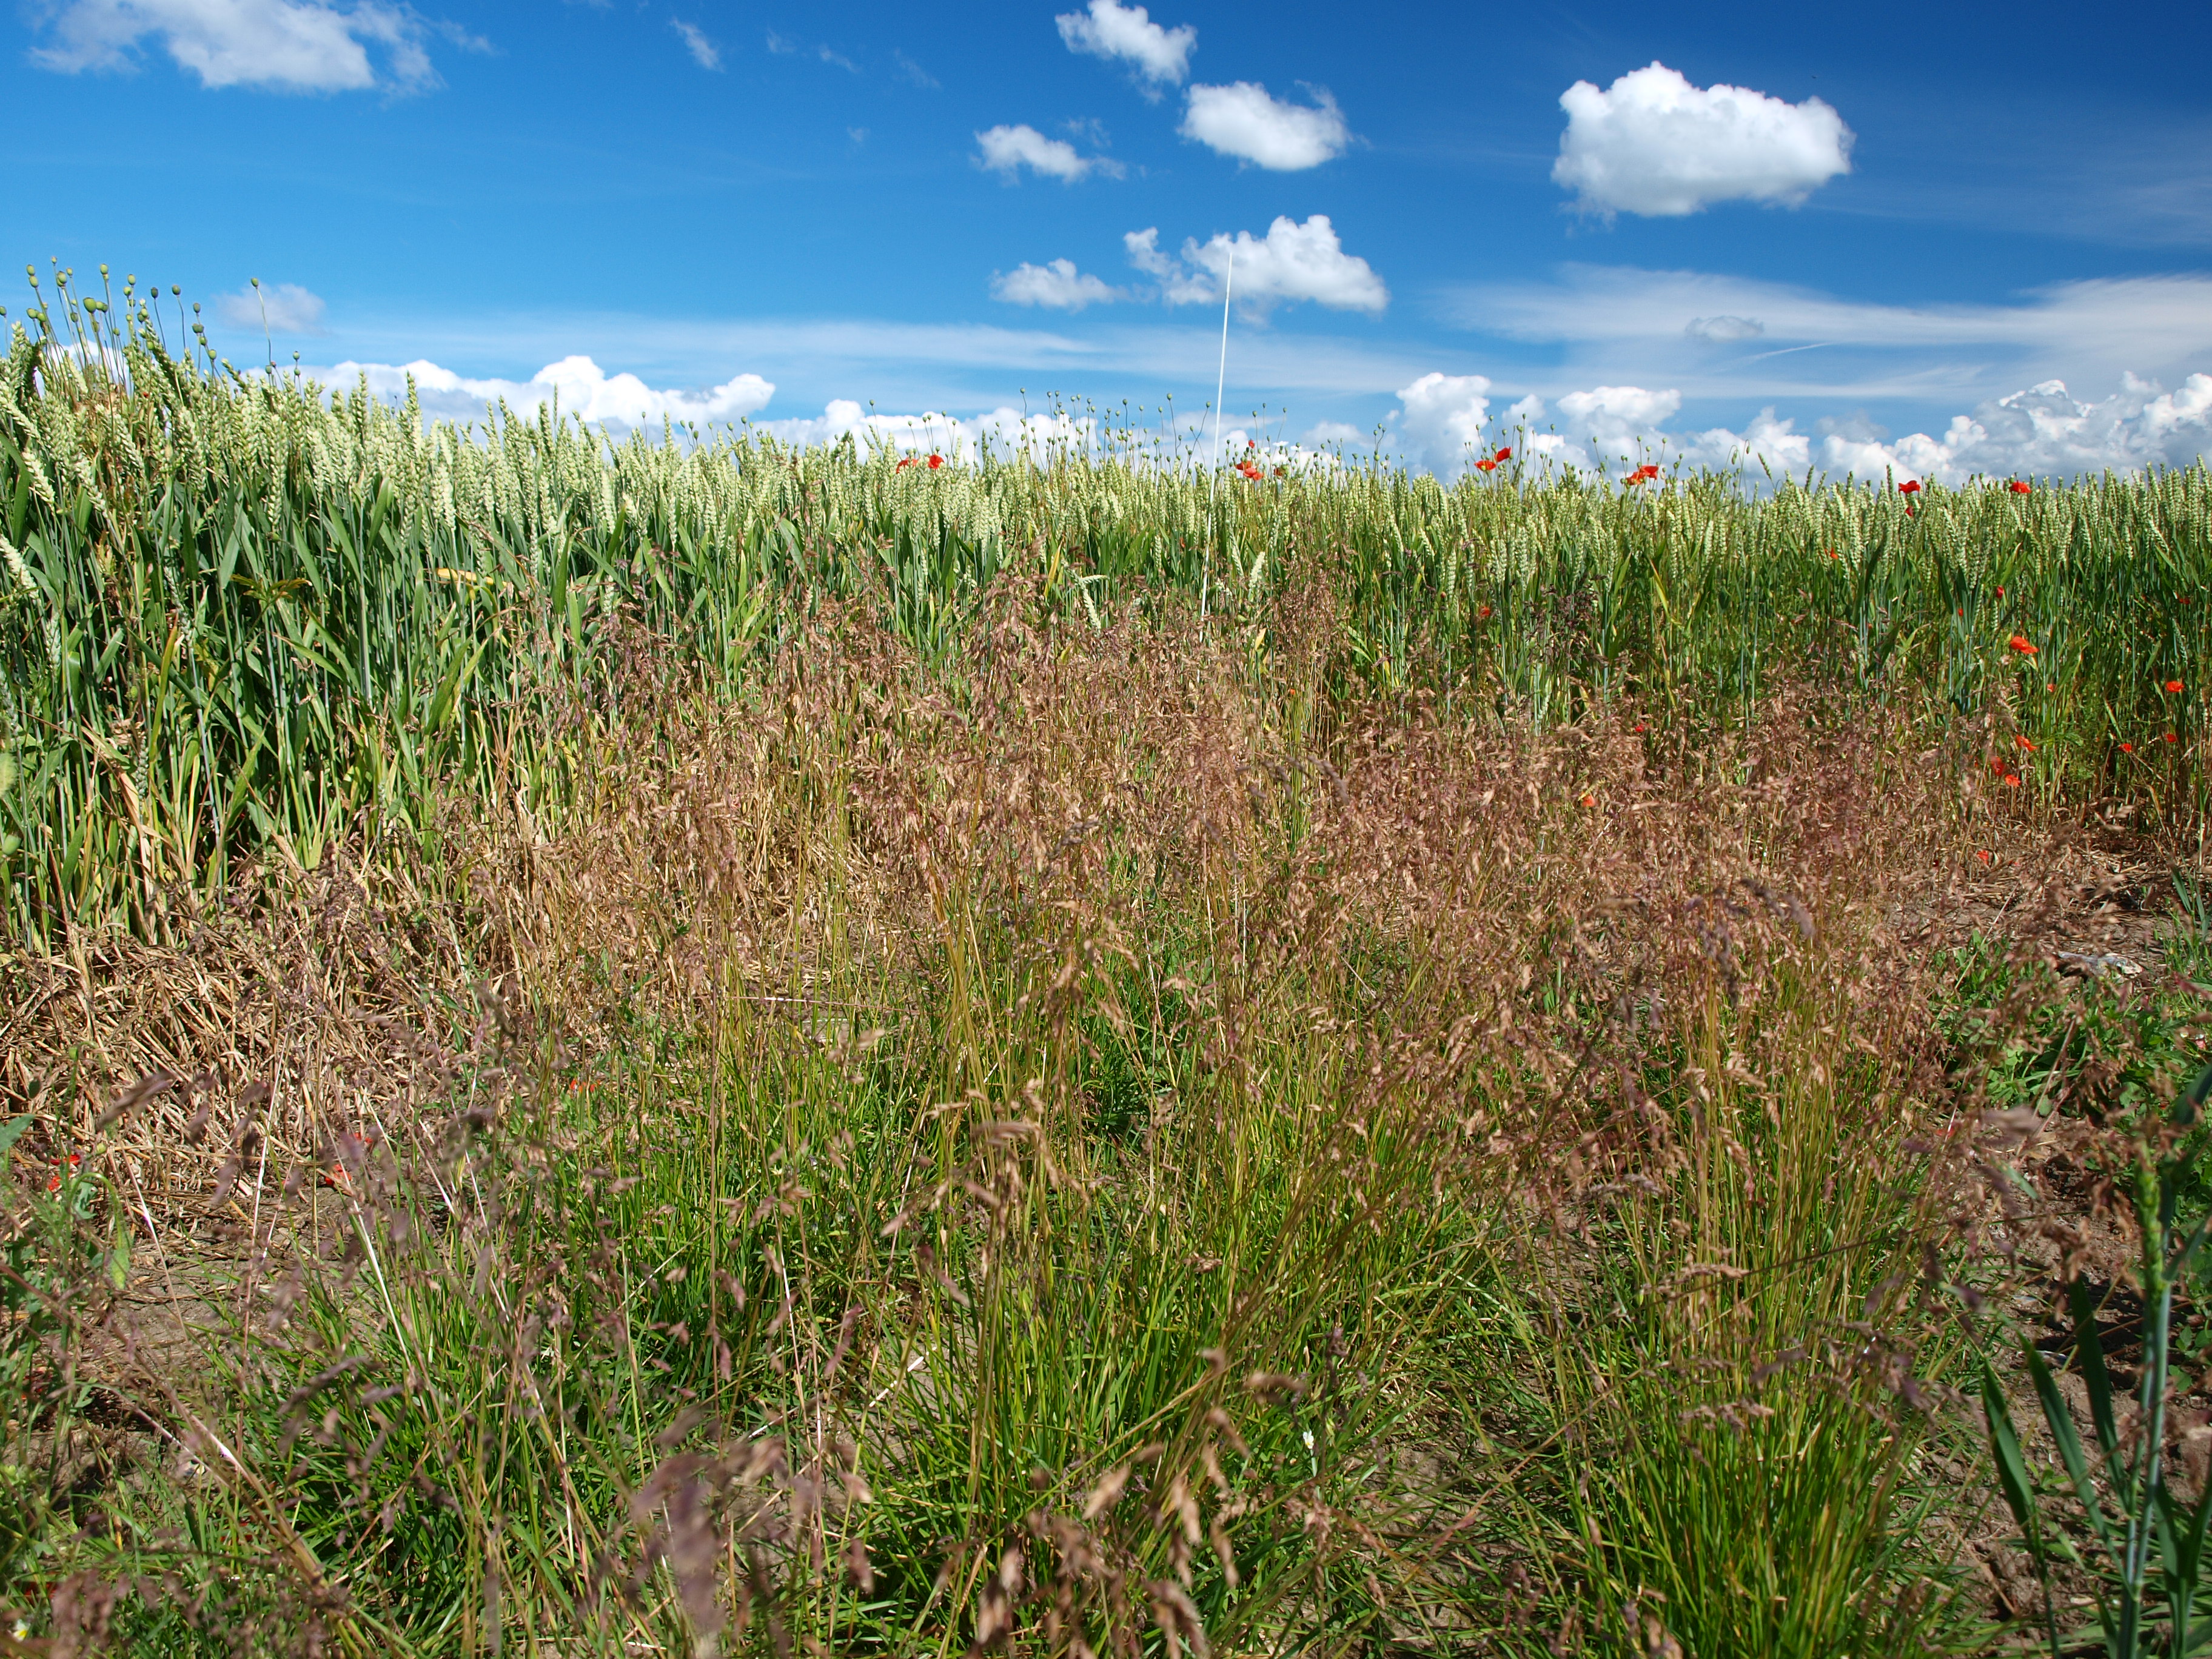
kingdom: Plantae
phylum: Tracheophyta
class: Liliopsida
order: Poales
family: Poaceae
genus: Poa
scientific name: Poa pratensis
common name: Kentucky bluegrass
